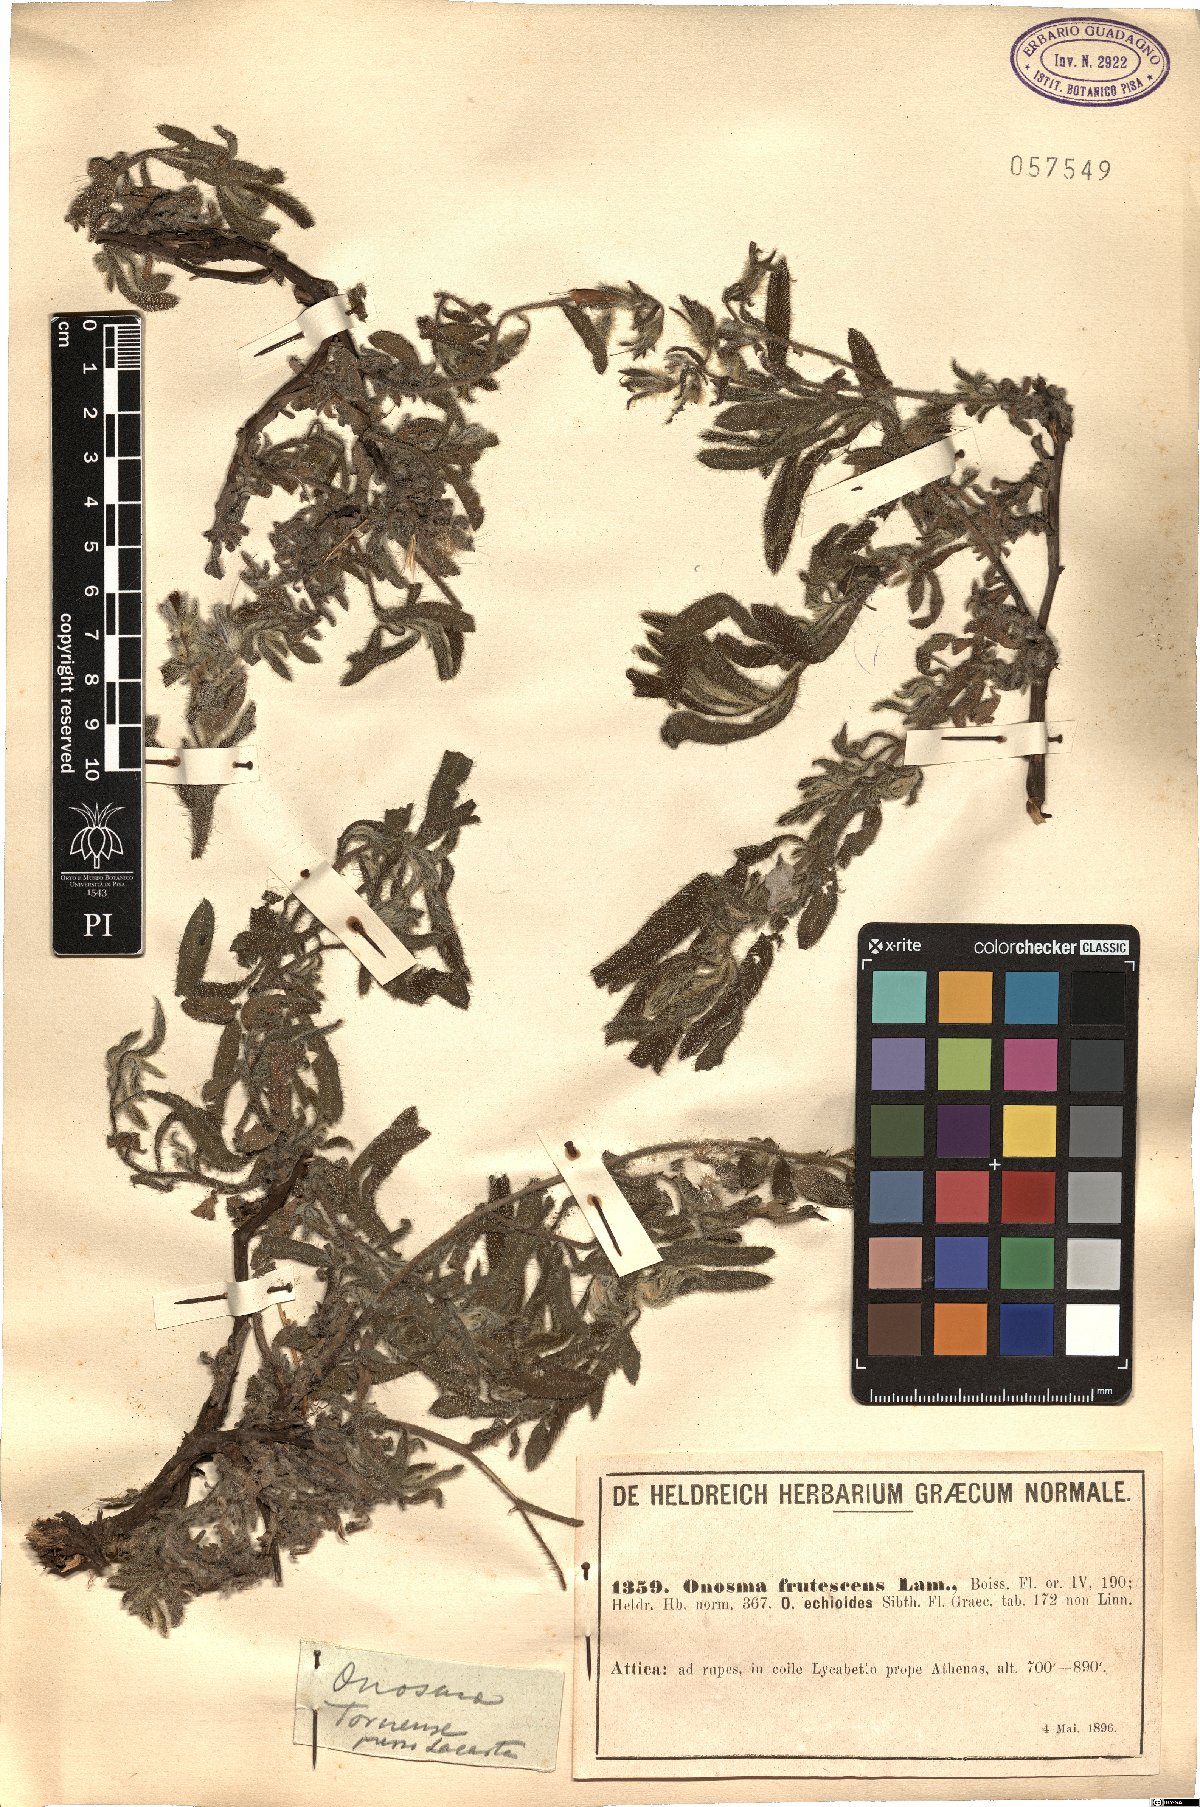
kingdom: Plantae
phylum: Tracheophyta
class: Magnoliopsida
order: Boraginales
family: Boraginaceae
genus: Onosma
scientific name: Onosma frutescens
